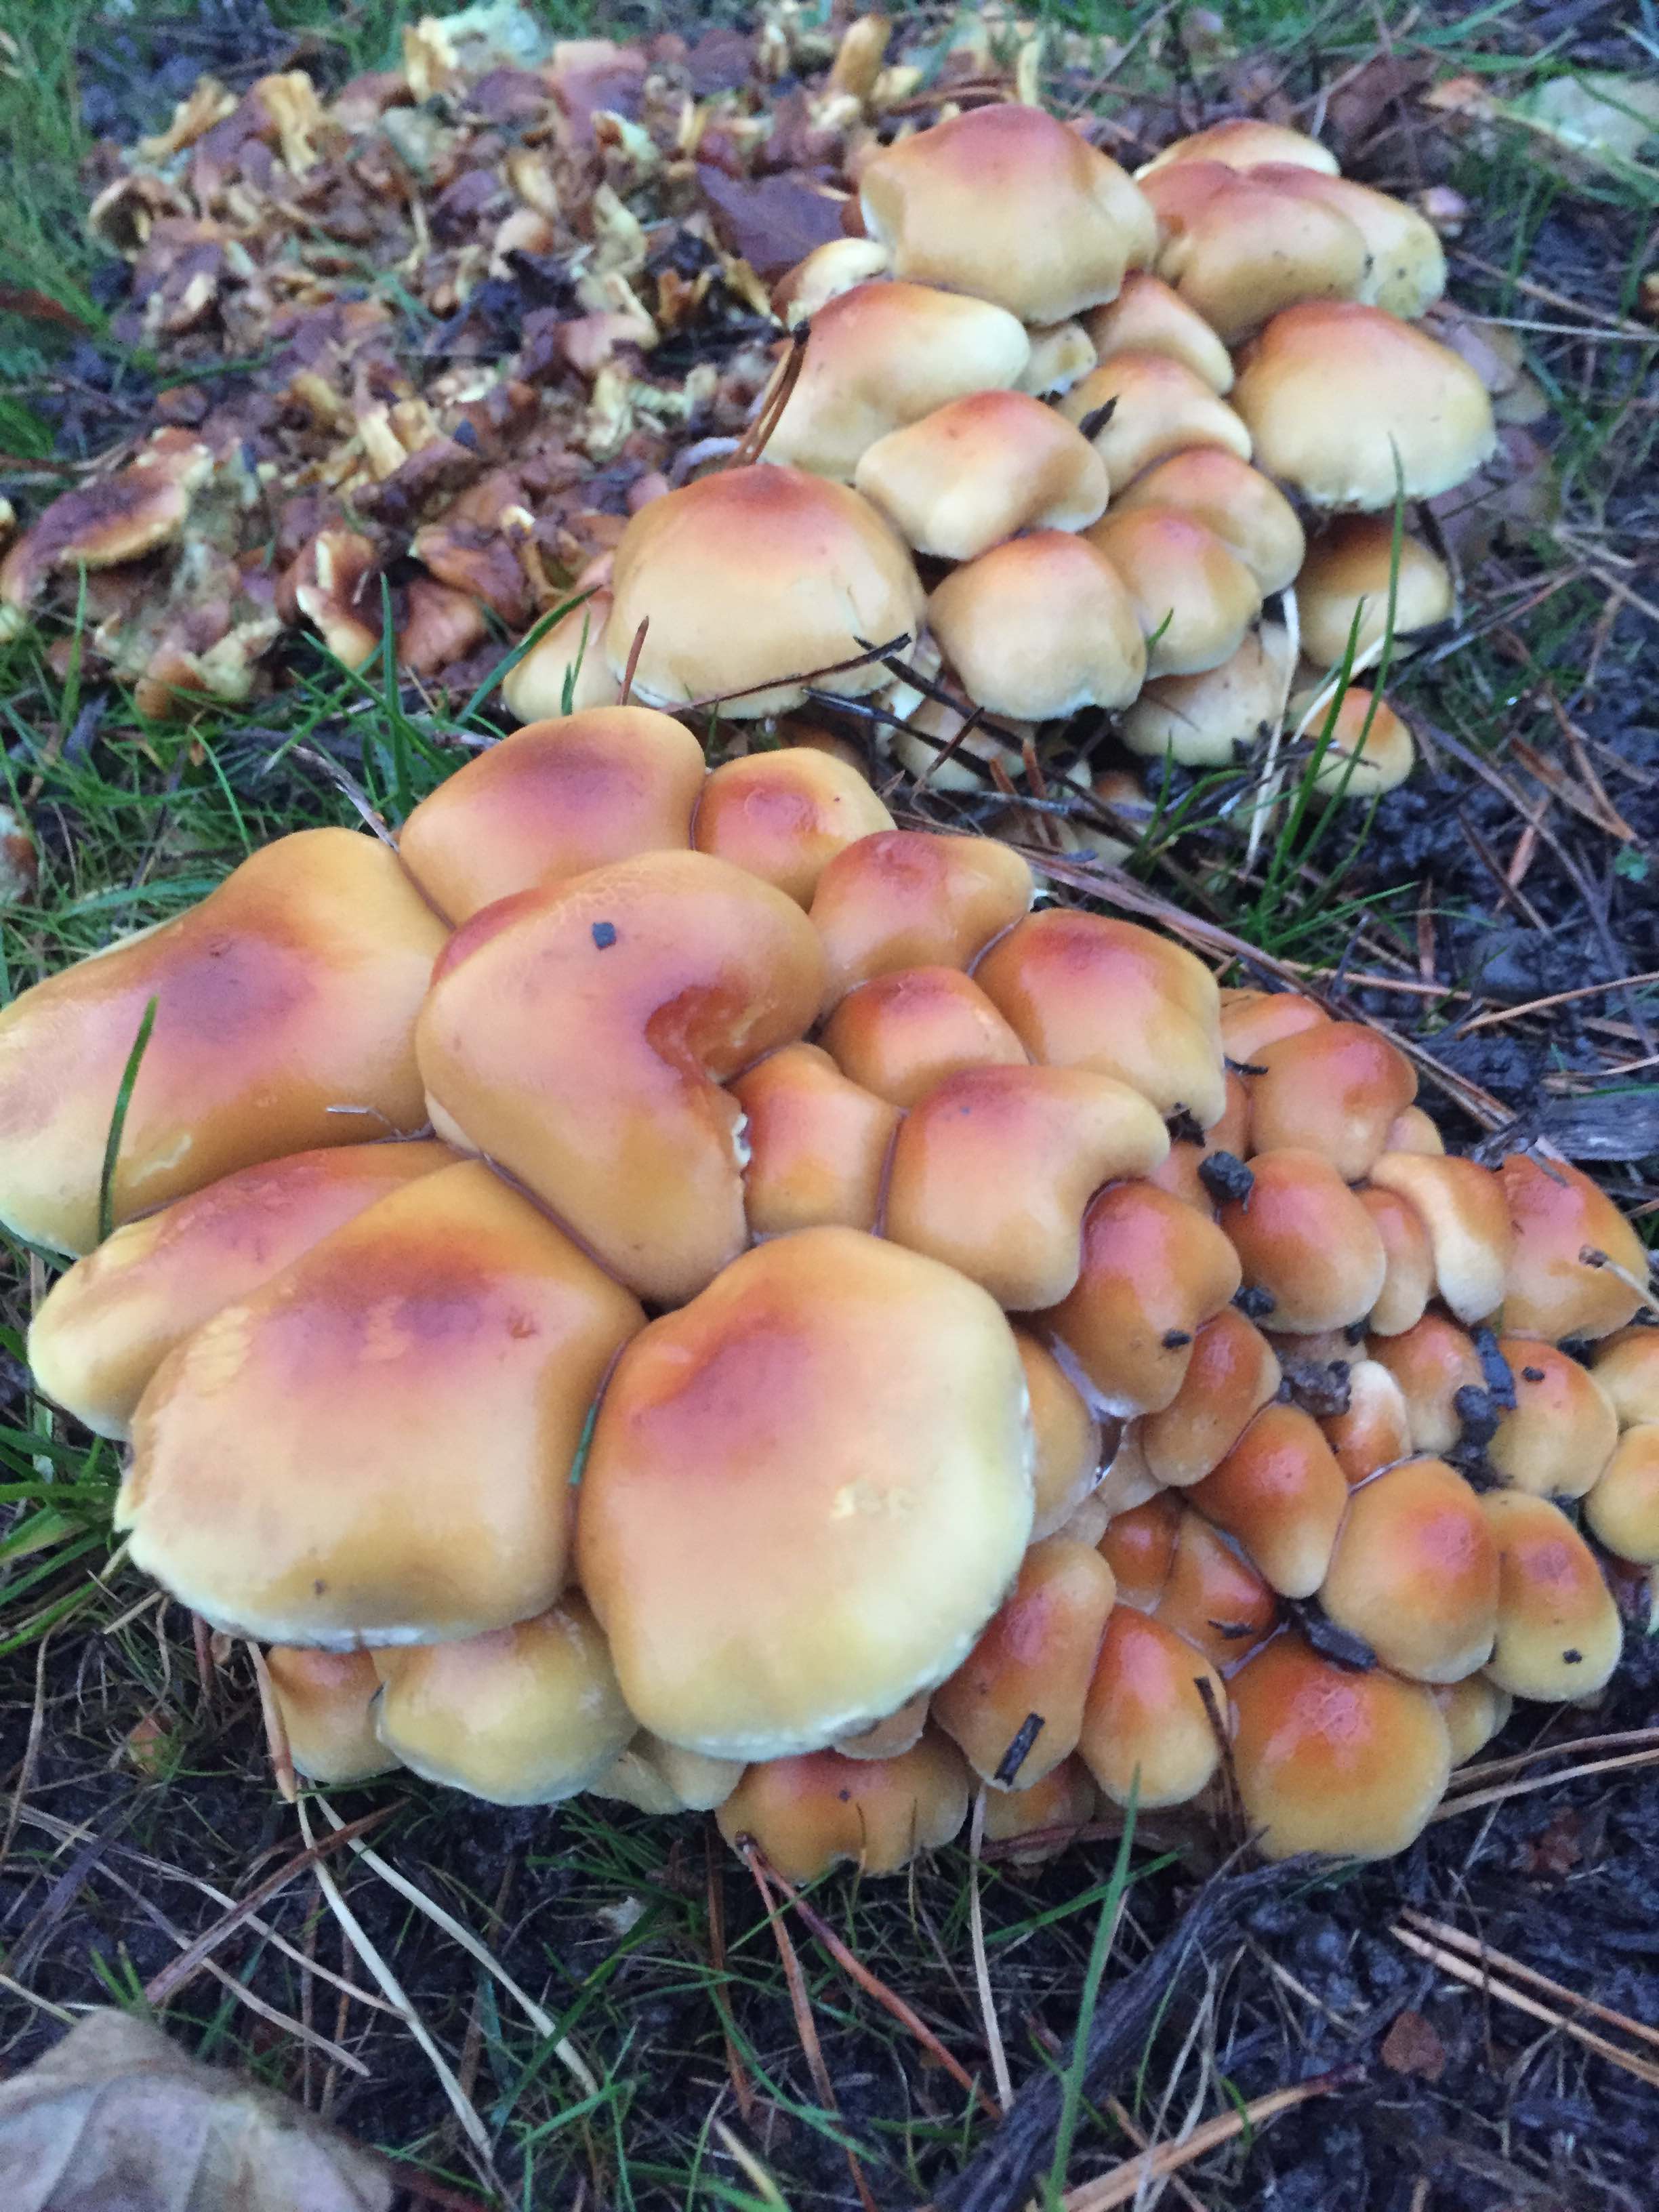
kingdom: Fungi
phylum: Basidiomycota
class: Agaricomycetes
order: Agaricales
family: Strophariaceae
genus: Hypholoma
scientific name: Hypholoma fasciculare
